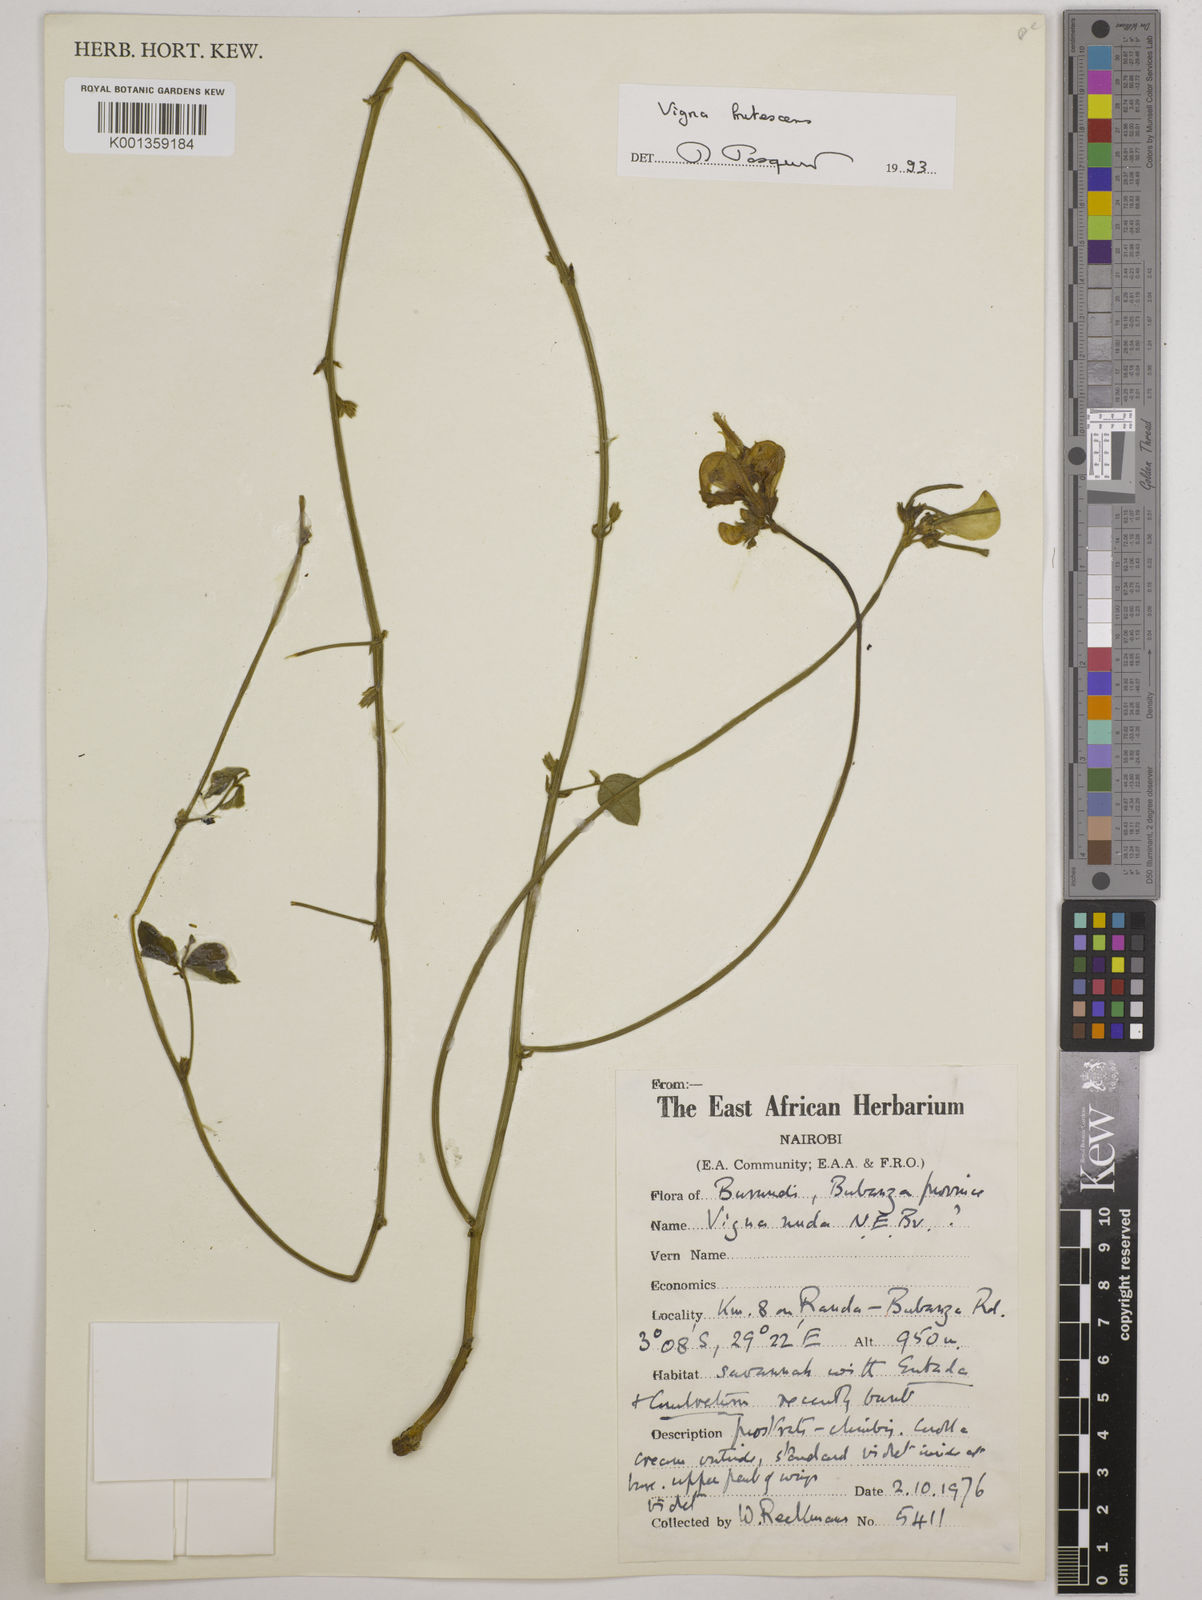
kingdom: Plantae
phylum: Tracheophyta
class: Magnoliopsida
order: Fabales
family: Fabaceae
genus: Vigna
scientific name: Vigna frutescens
